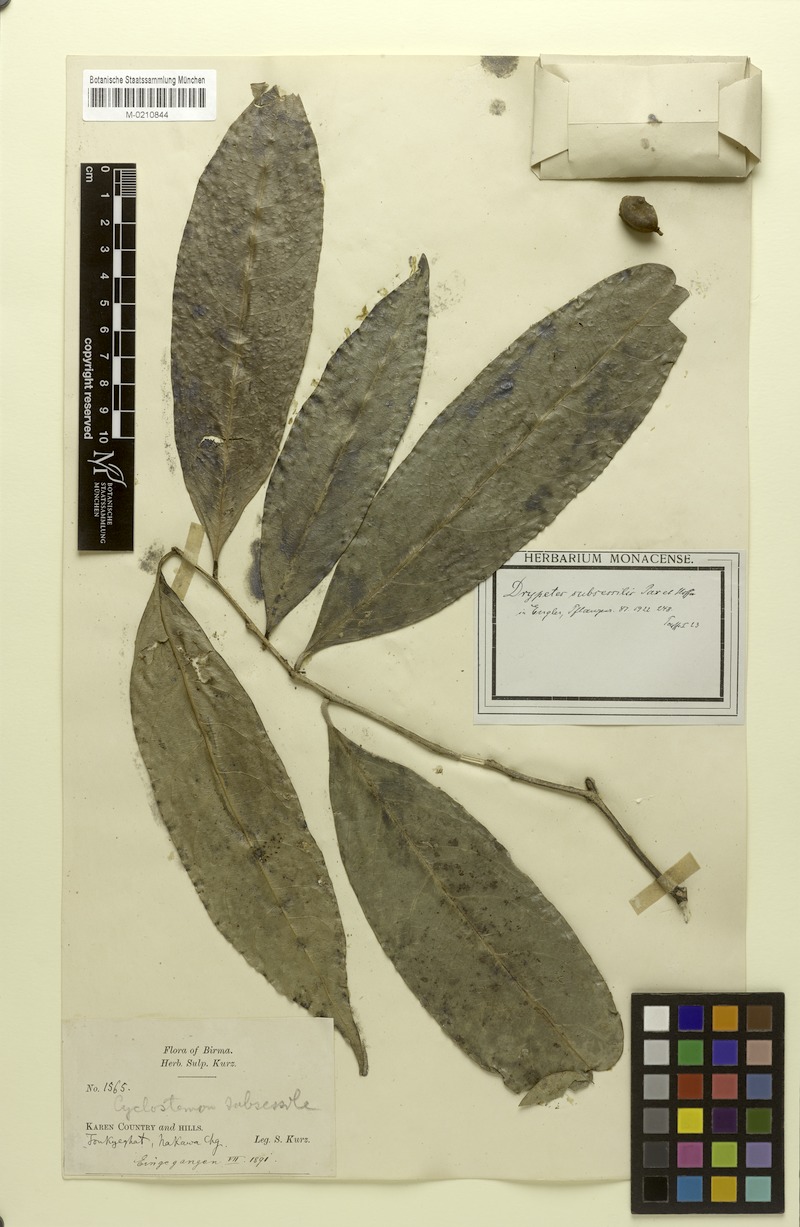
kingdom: Plantae
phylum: Tracheophyta
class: Magnoliopsida
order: Malpighiales
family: Putranjivaceae
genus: Drypetes
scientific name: Drypetes subsessilis
